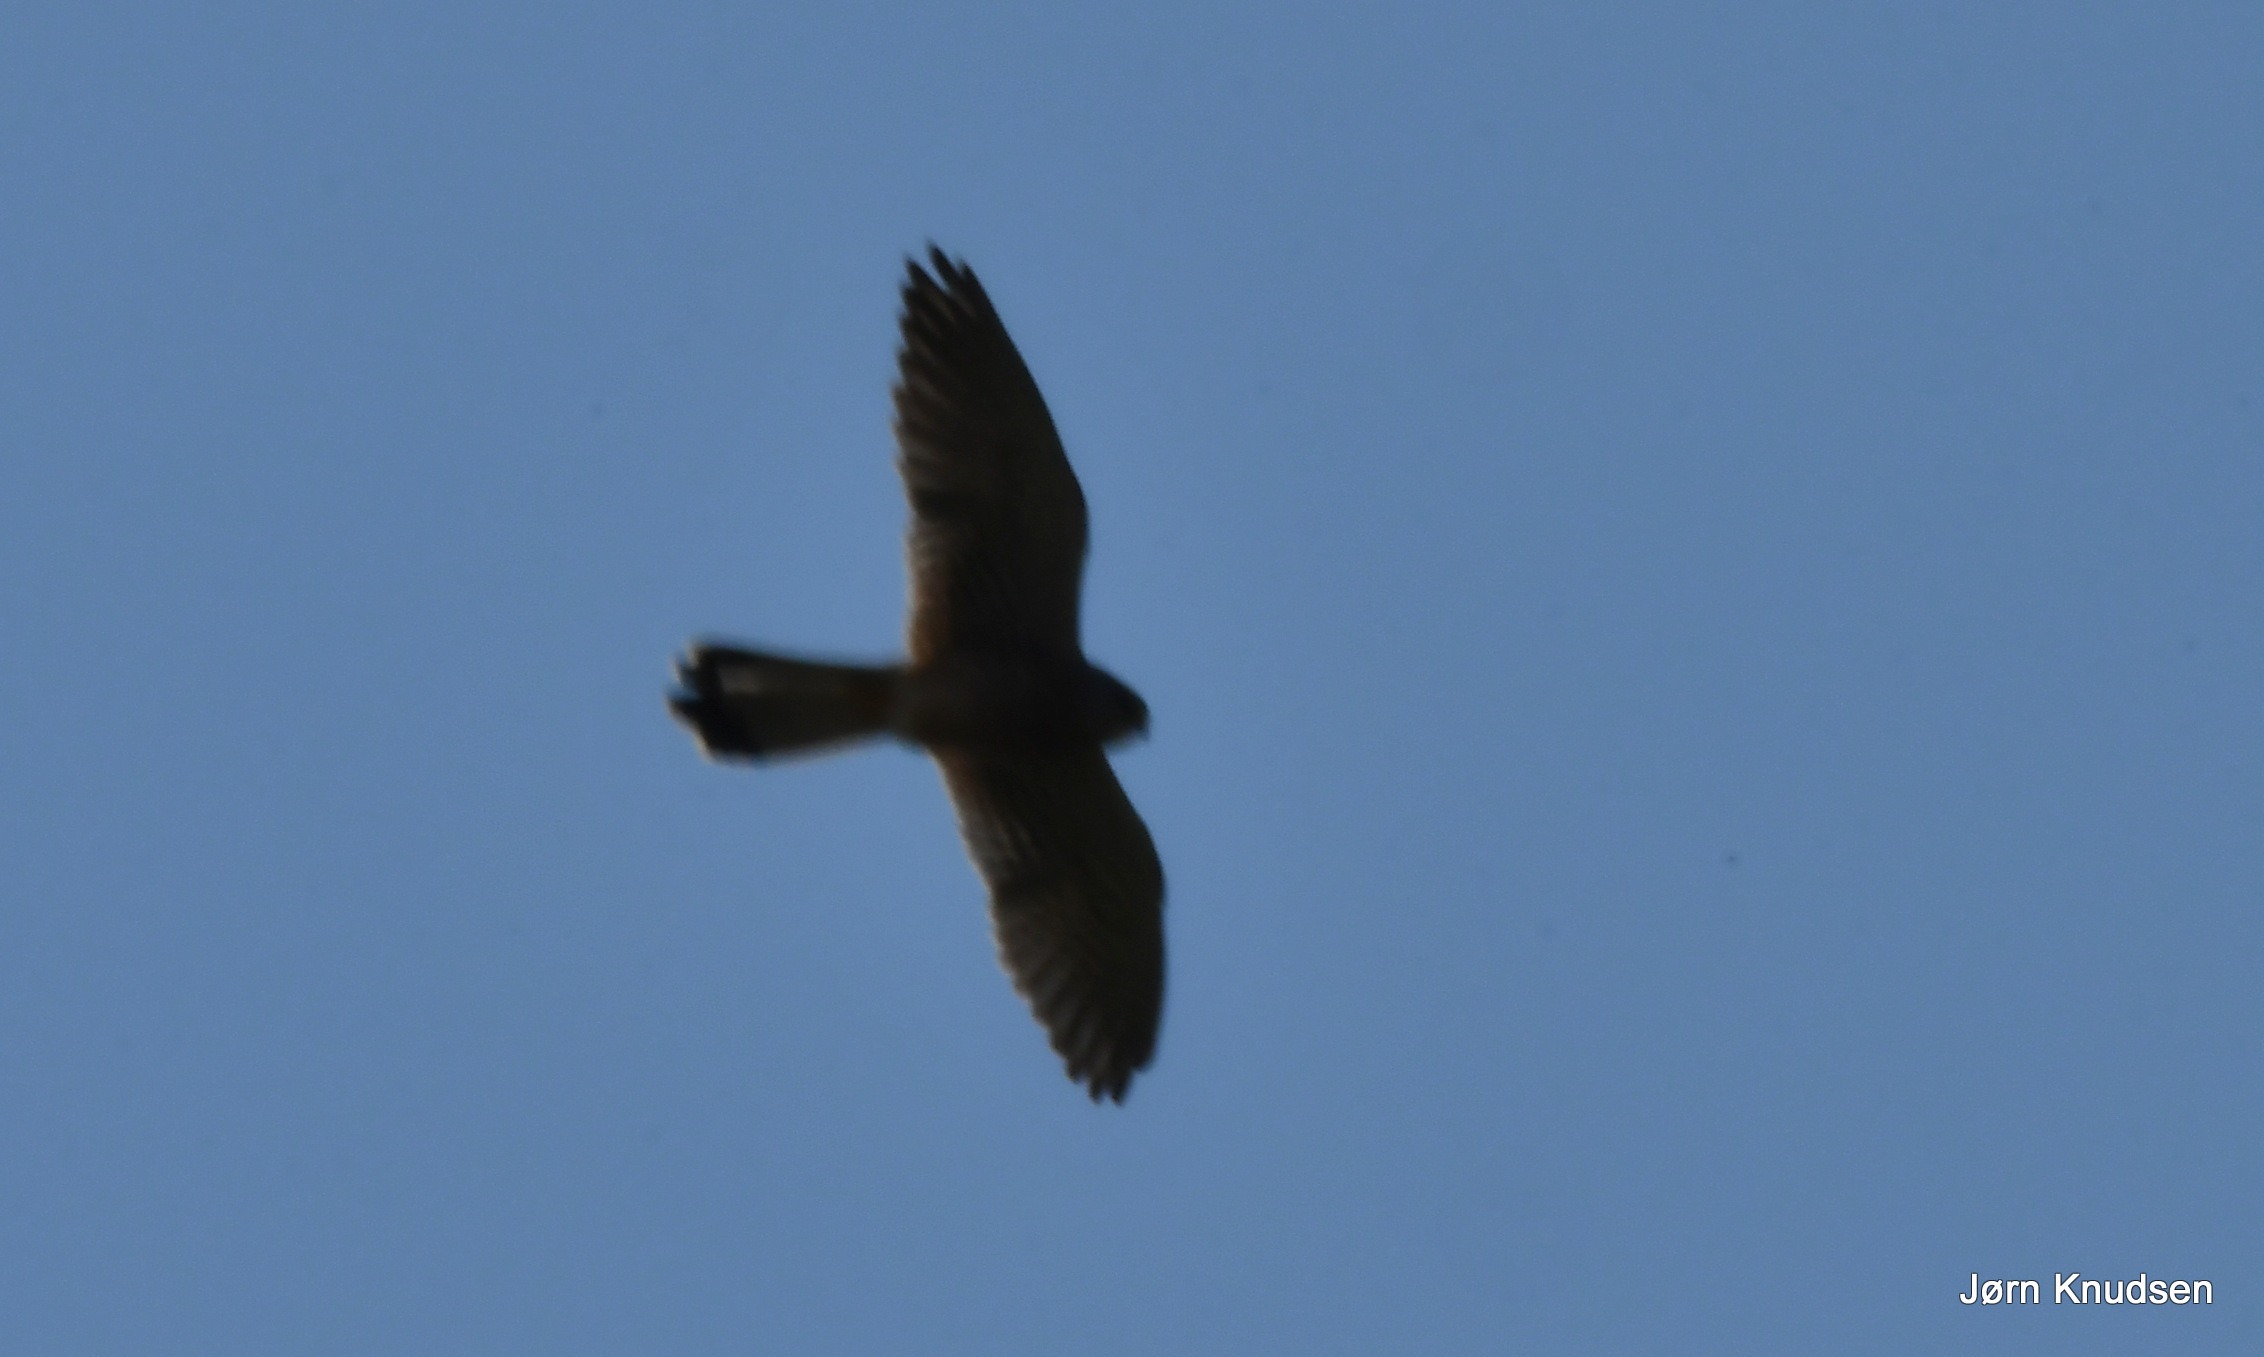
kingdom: Animalia
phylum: Chordata
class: Aves
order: Falconiformes
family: Falconidae
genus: Falco
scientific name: Falco tinnunculus
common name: Tårnfalk
